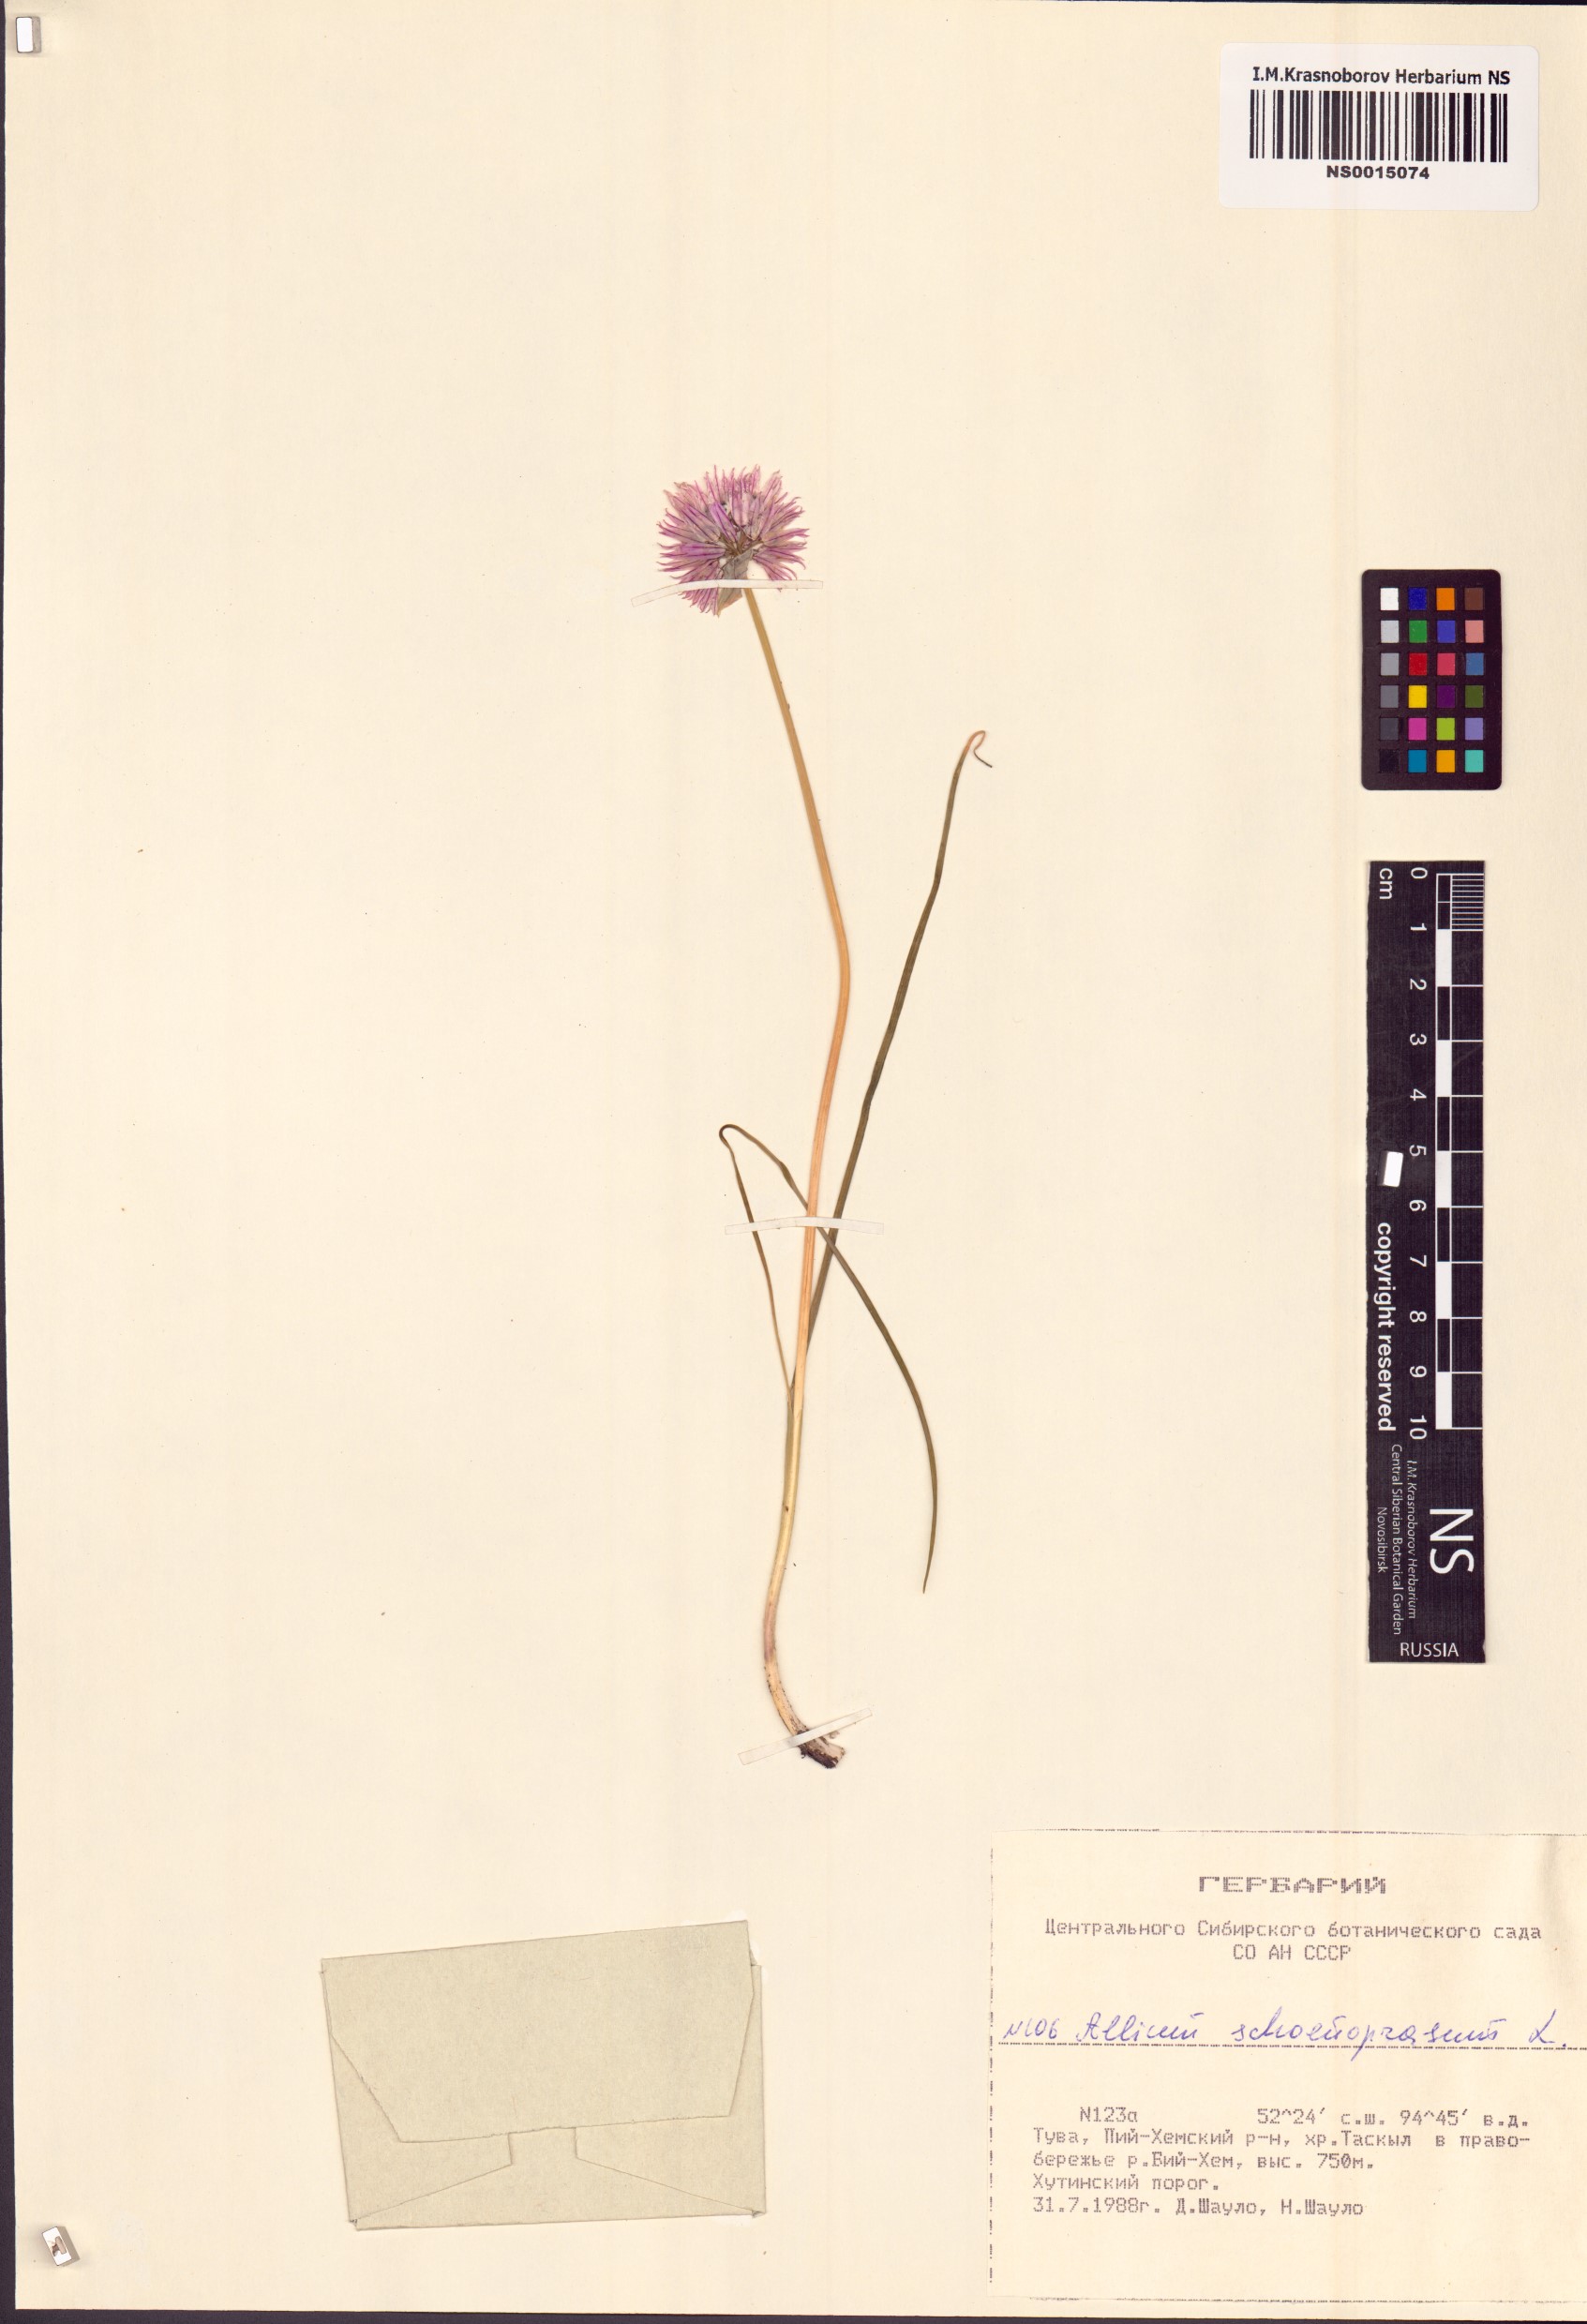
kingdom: Plantae
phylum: Tracheophyta
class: Liliopsida
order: Asparagales
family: Amaryllidaceae
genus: Allium
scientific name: Allium schoenoprasum
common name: Chives
